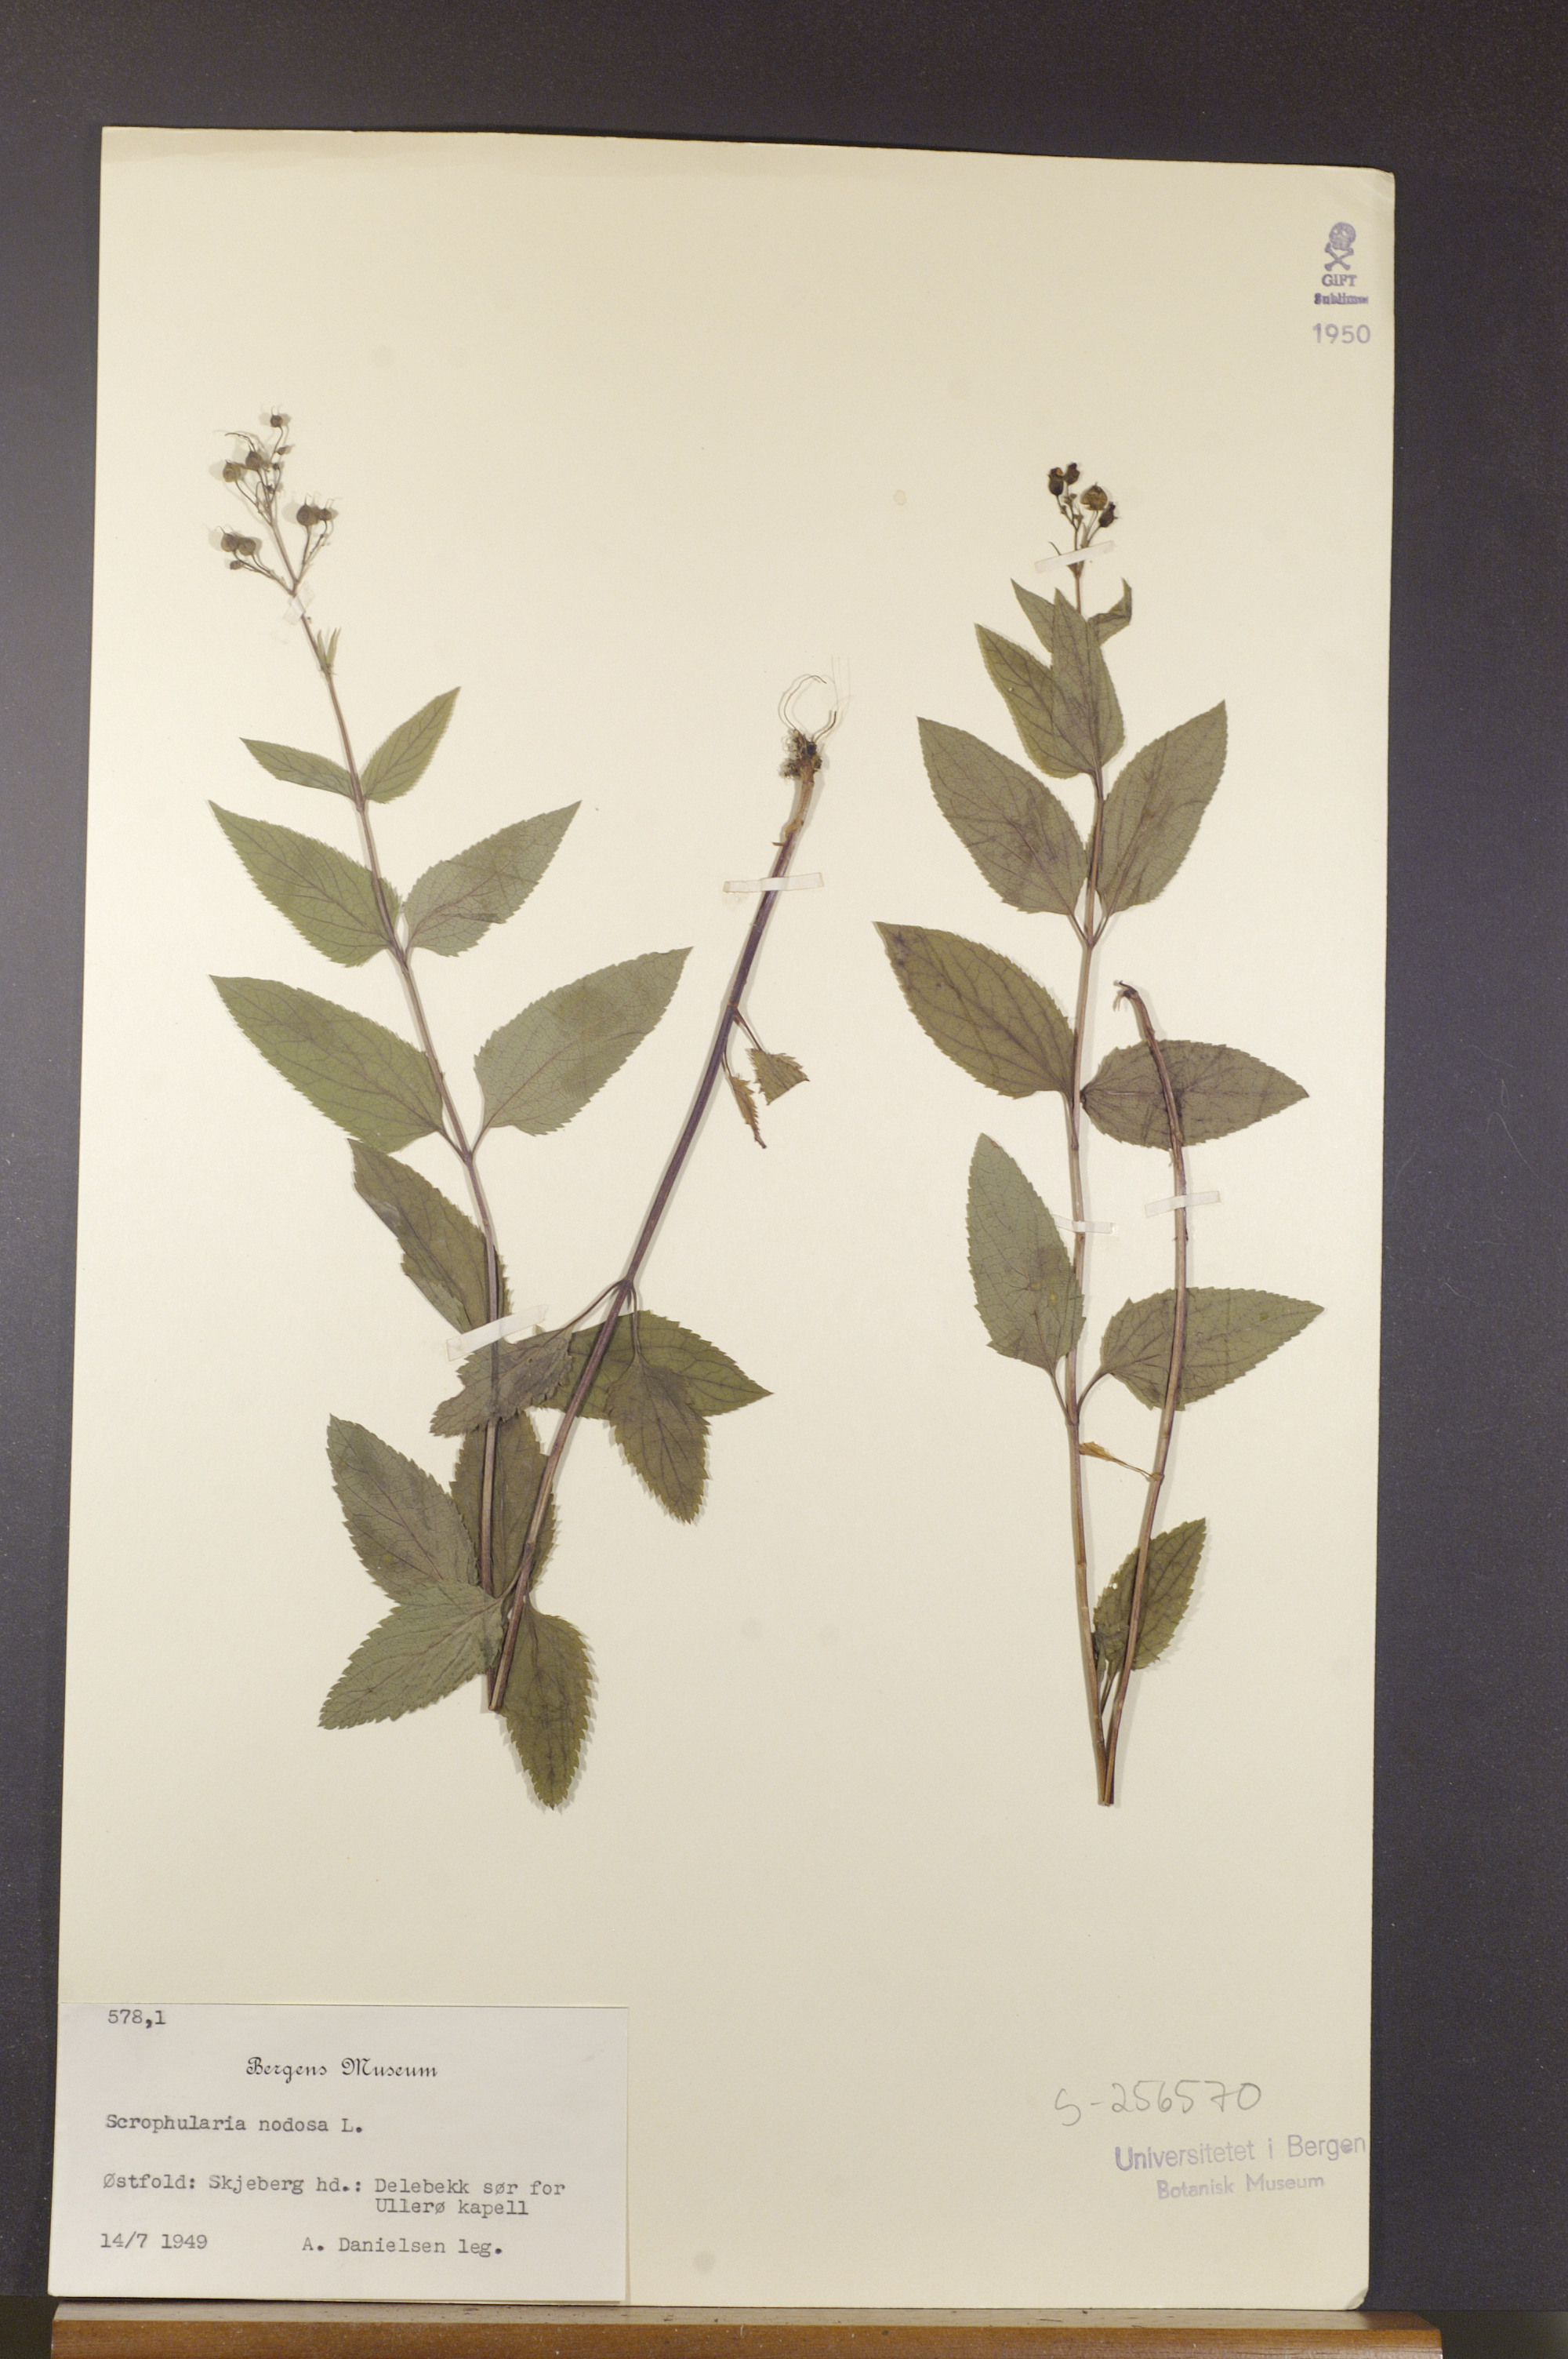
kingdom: Plantae
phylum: Tracheophyta
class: Magnoliopsida
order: Lamiales
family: Scrophulariaceae
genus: Scrophularia
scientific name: Scrophularia nodosa
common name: Common figwort
